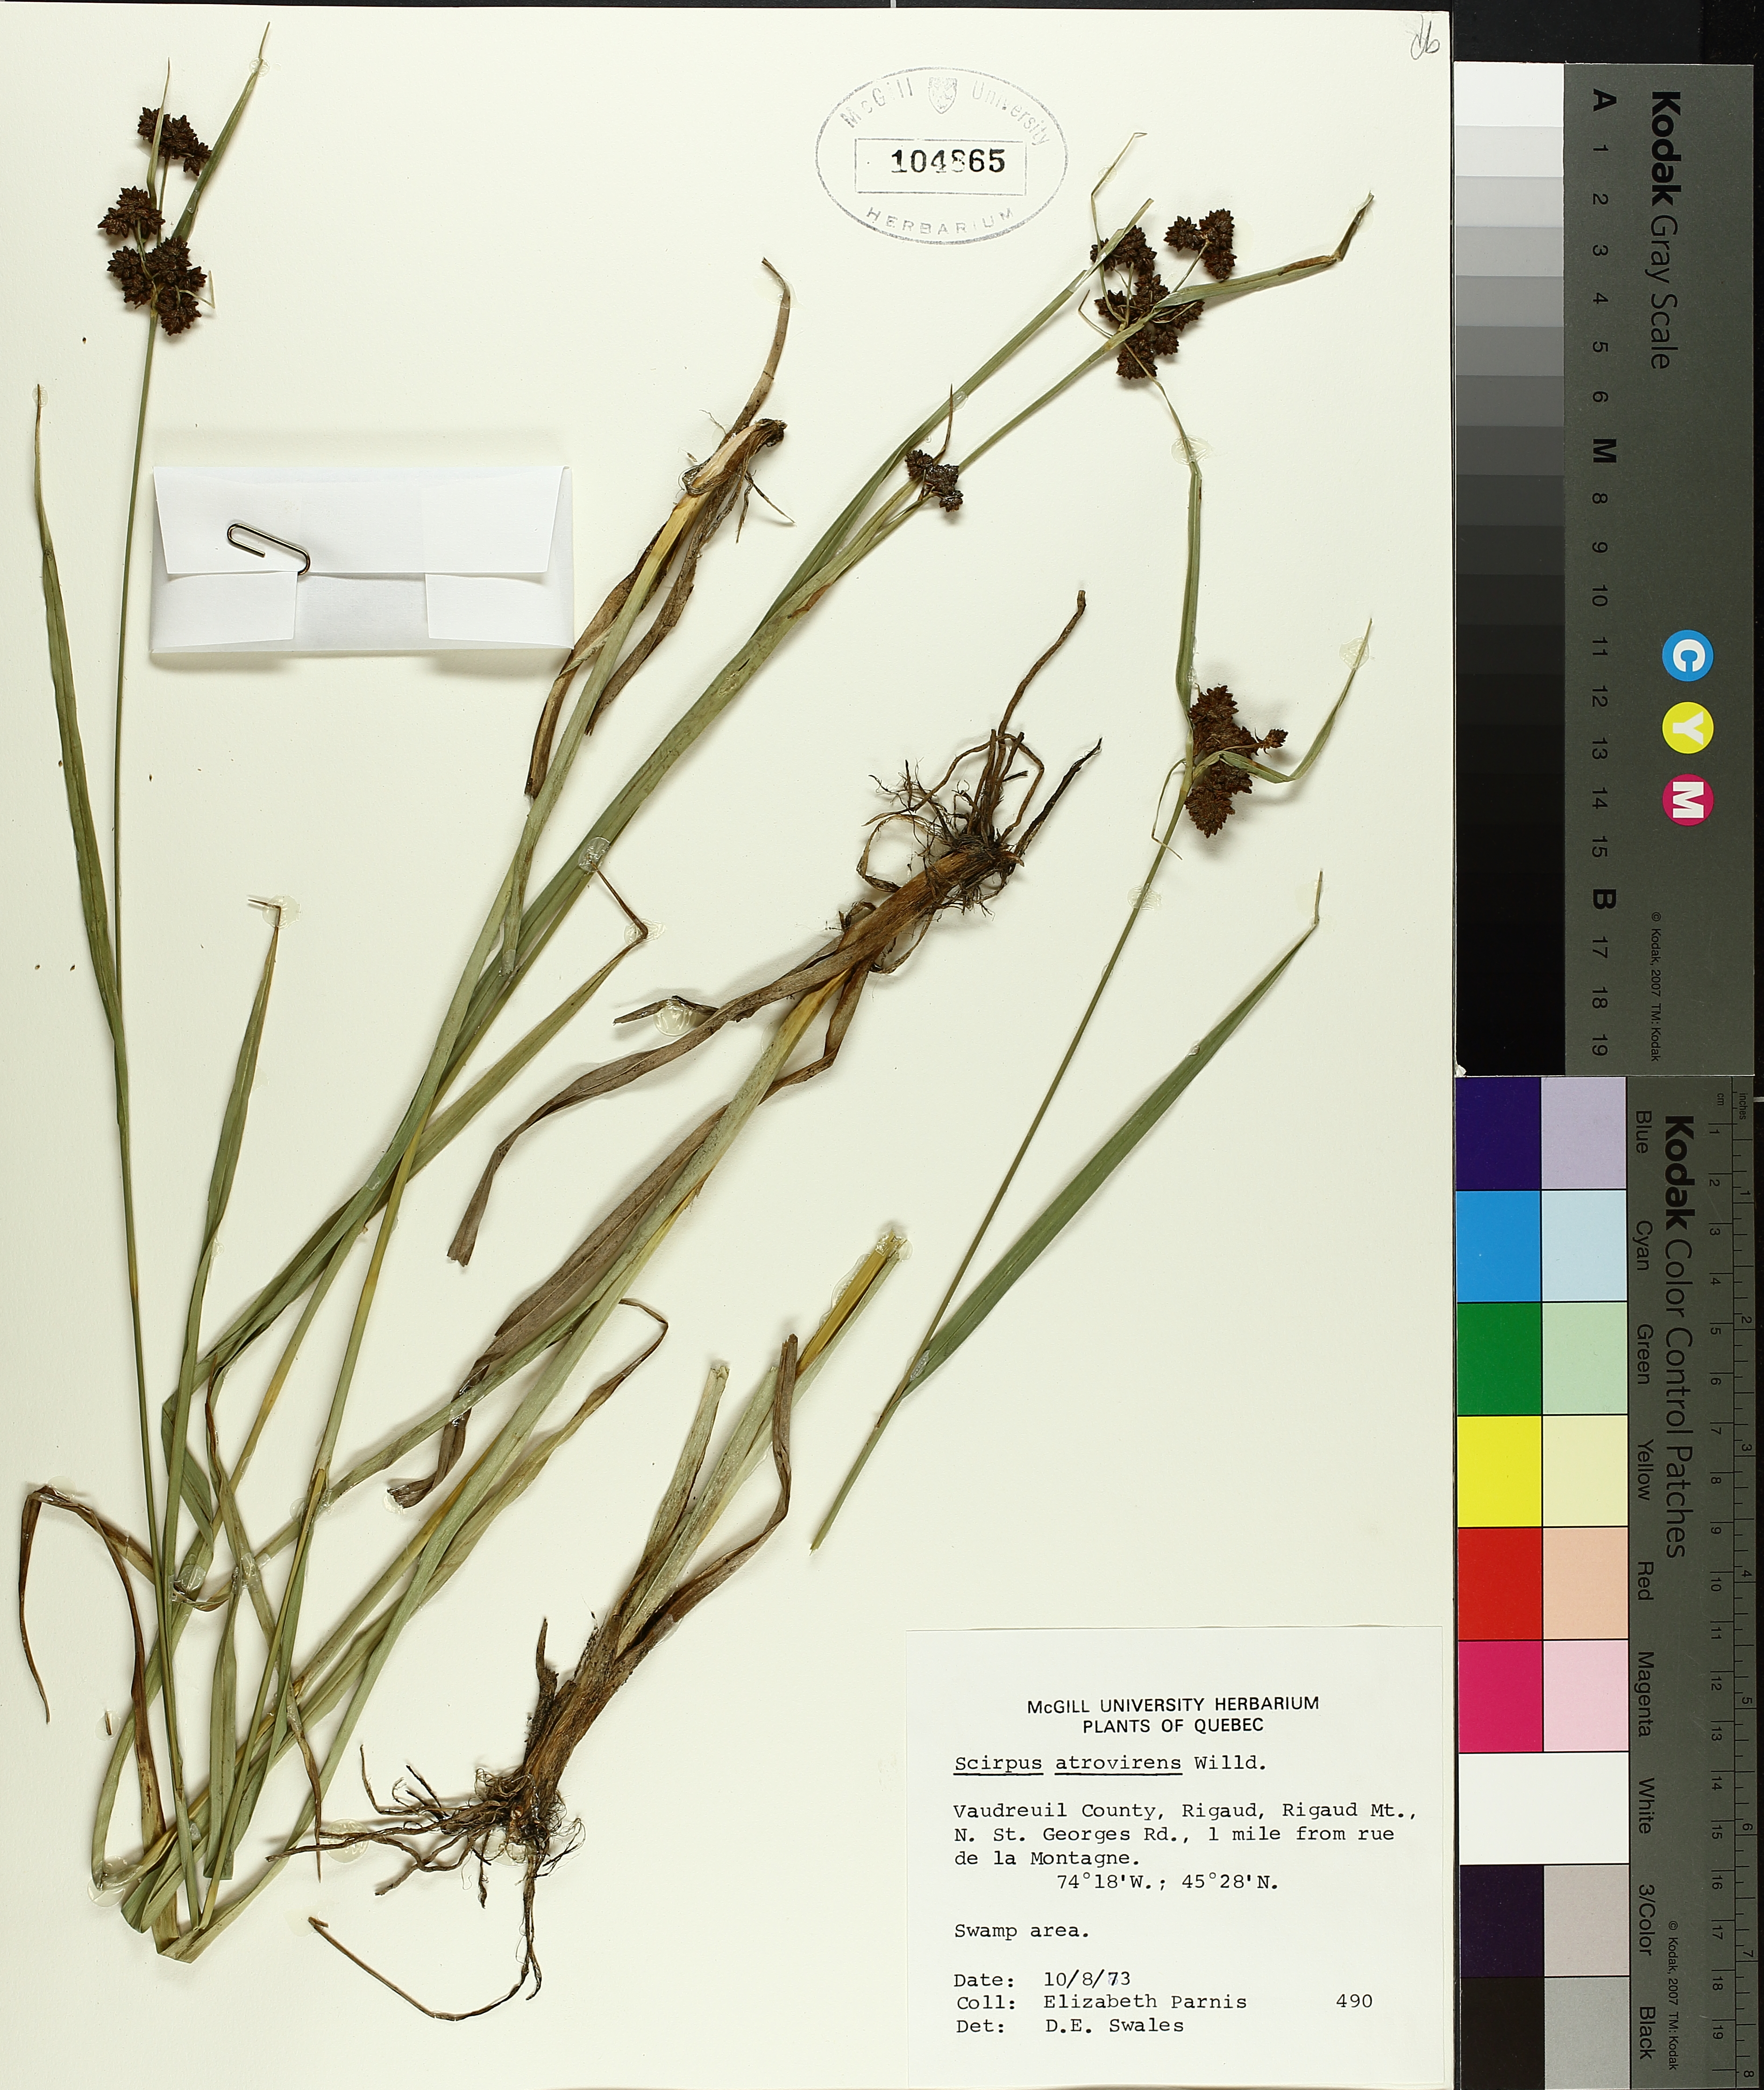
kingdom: Plantae
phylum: Tracheophyta
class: Liliopsida
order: Poales
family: Cyperaceae
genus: Scirpus
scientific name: Scirpus atrovirens
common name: Black bulrush
